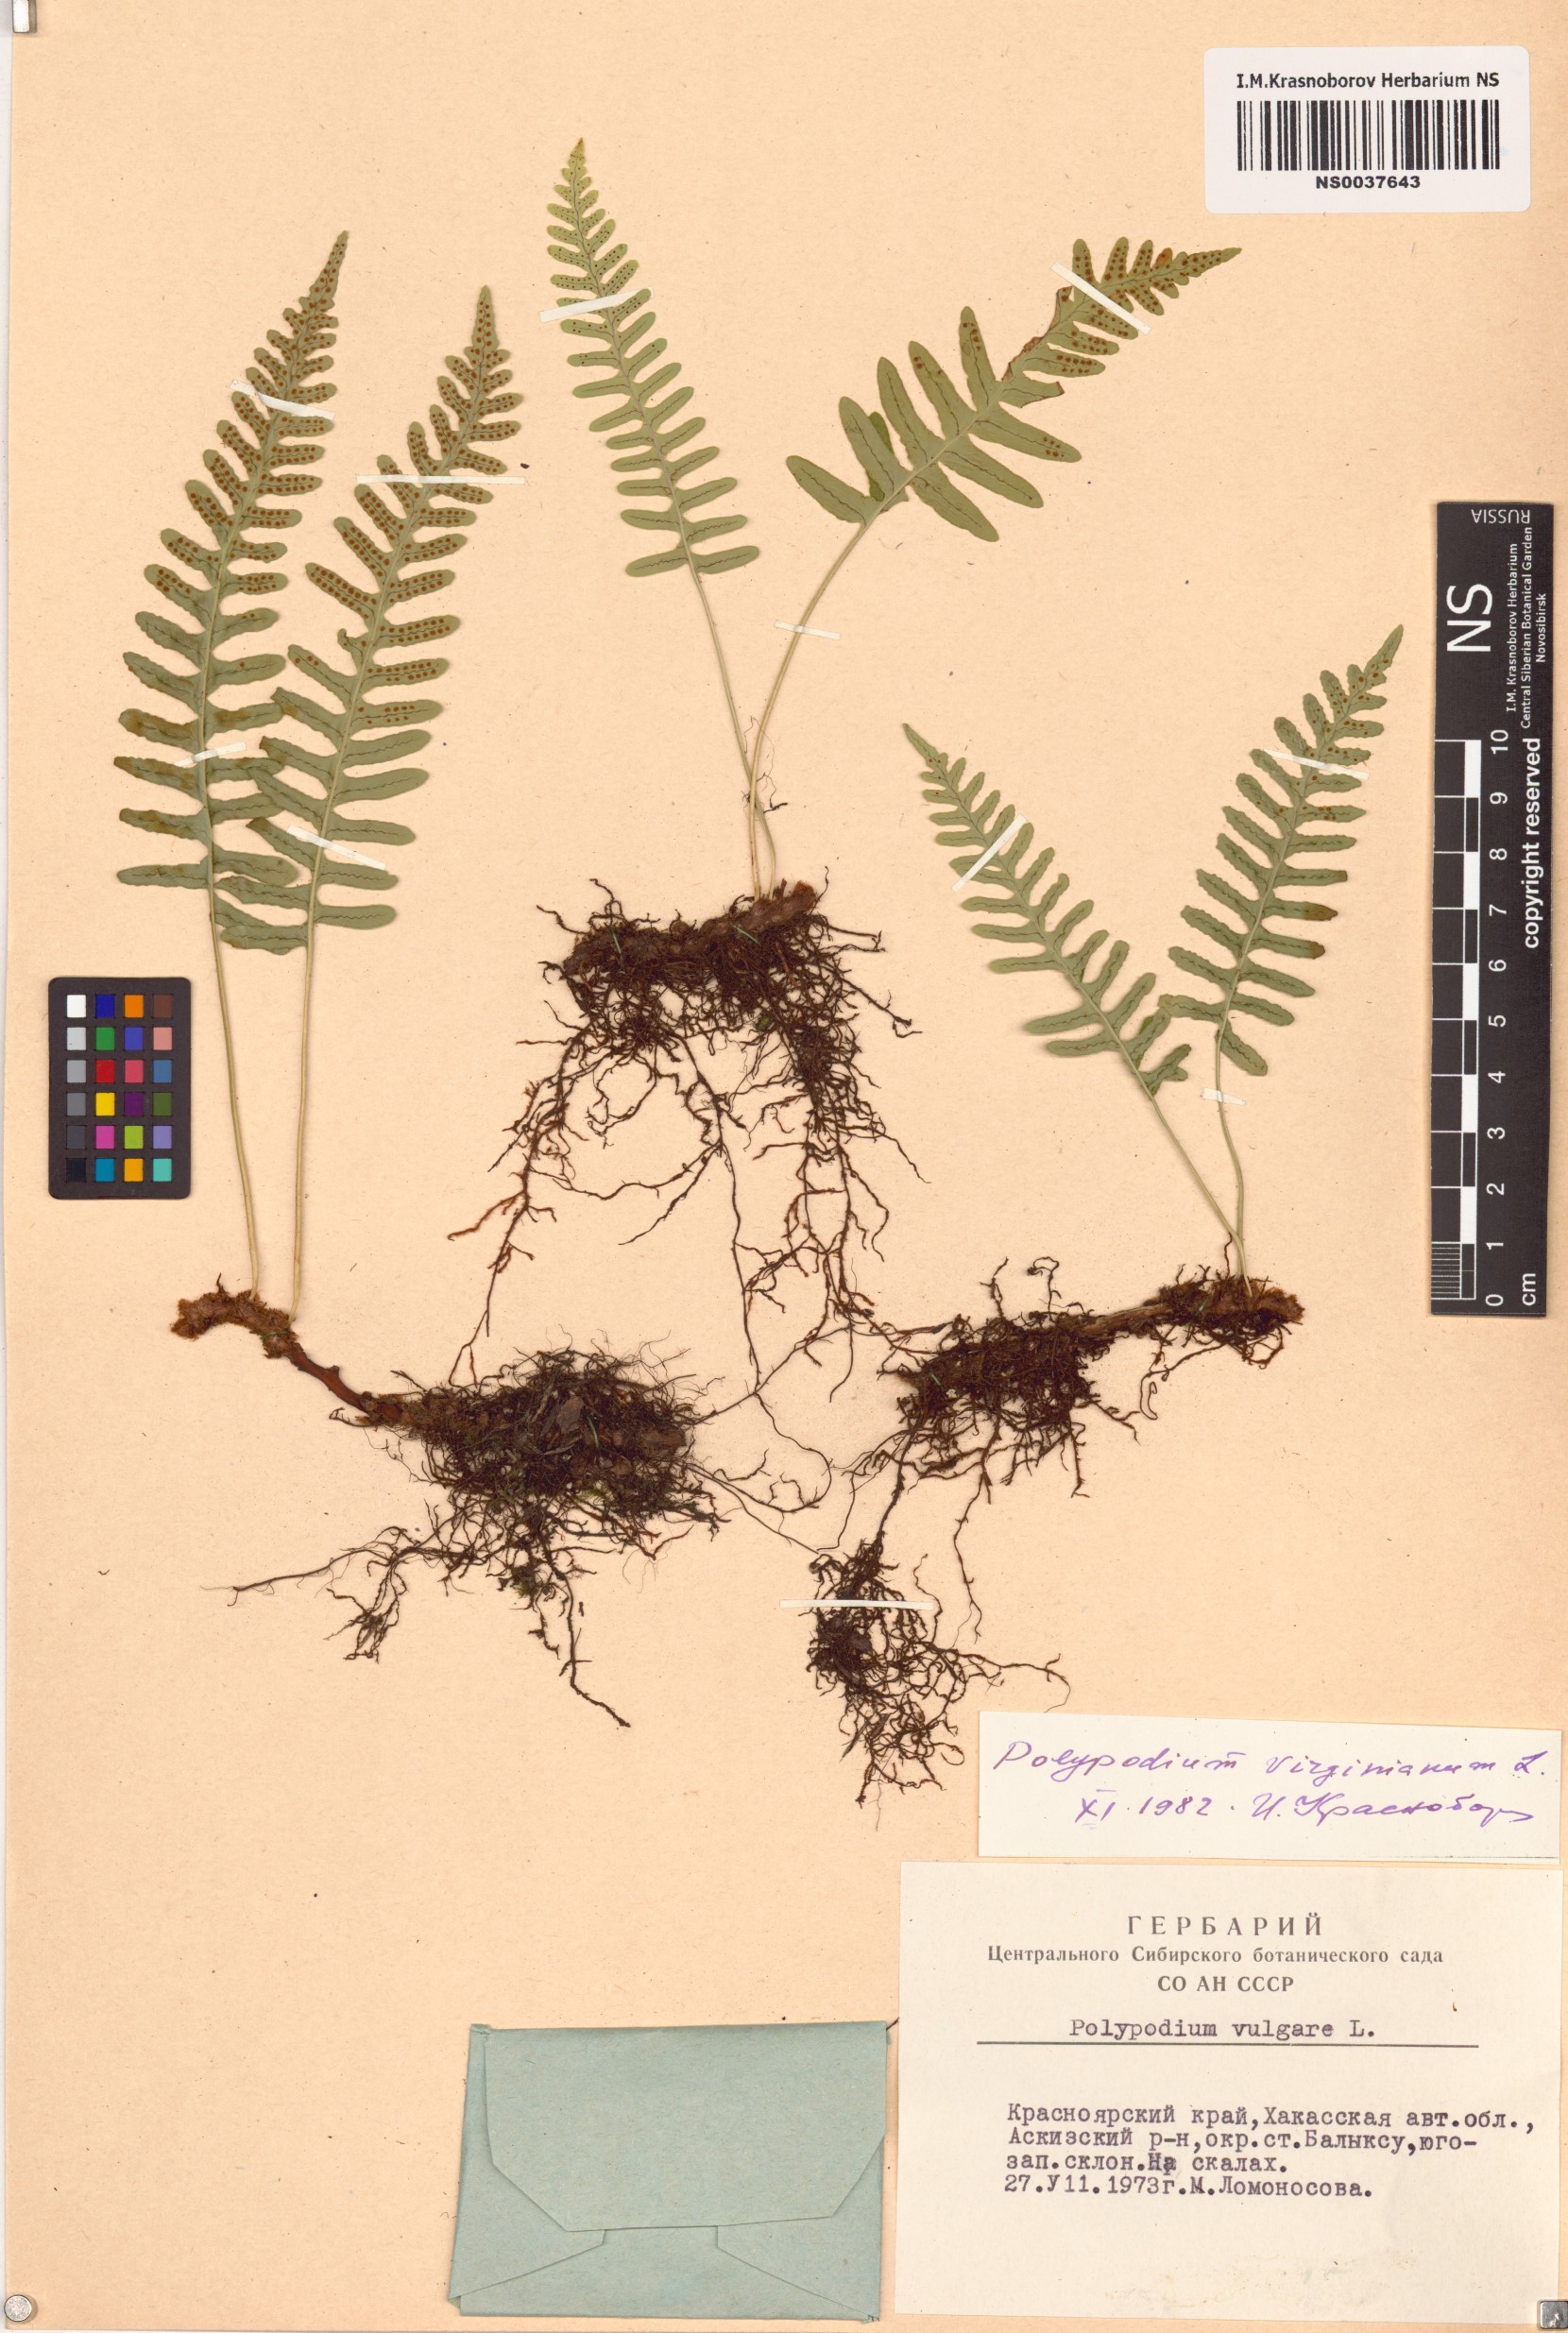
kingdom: Plantae
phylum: Tracheophyta
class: Polypodiopsida
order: Polypodiales
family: Polypodiaceae
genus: Polypodium
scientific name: Polypodium virginianum
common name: American wall fern
